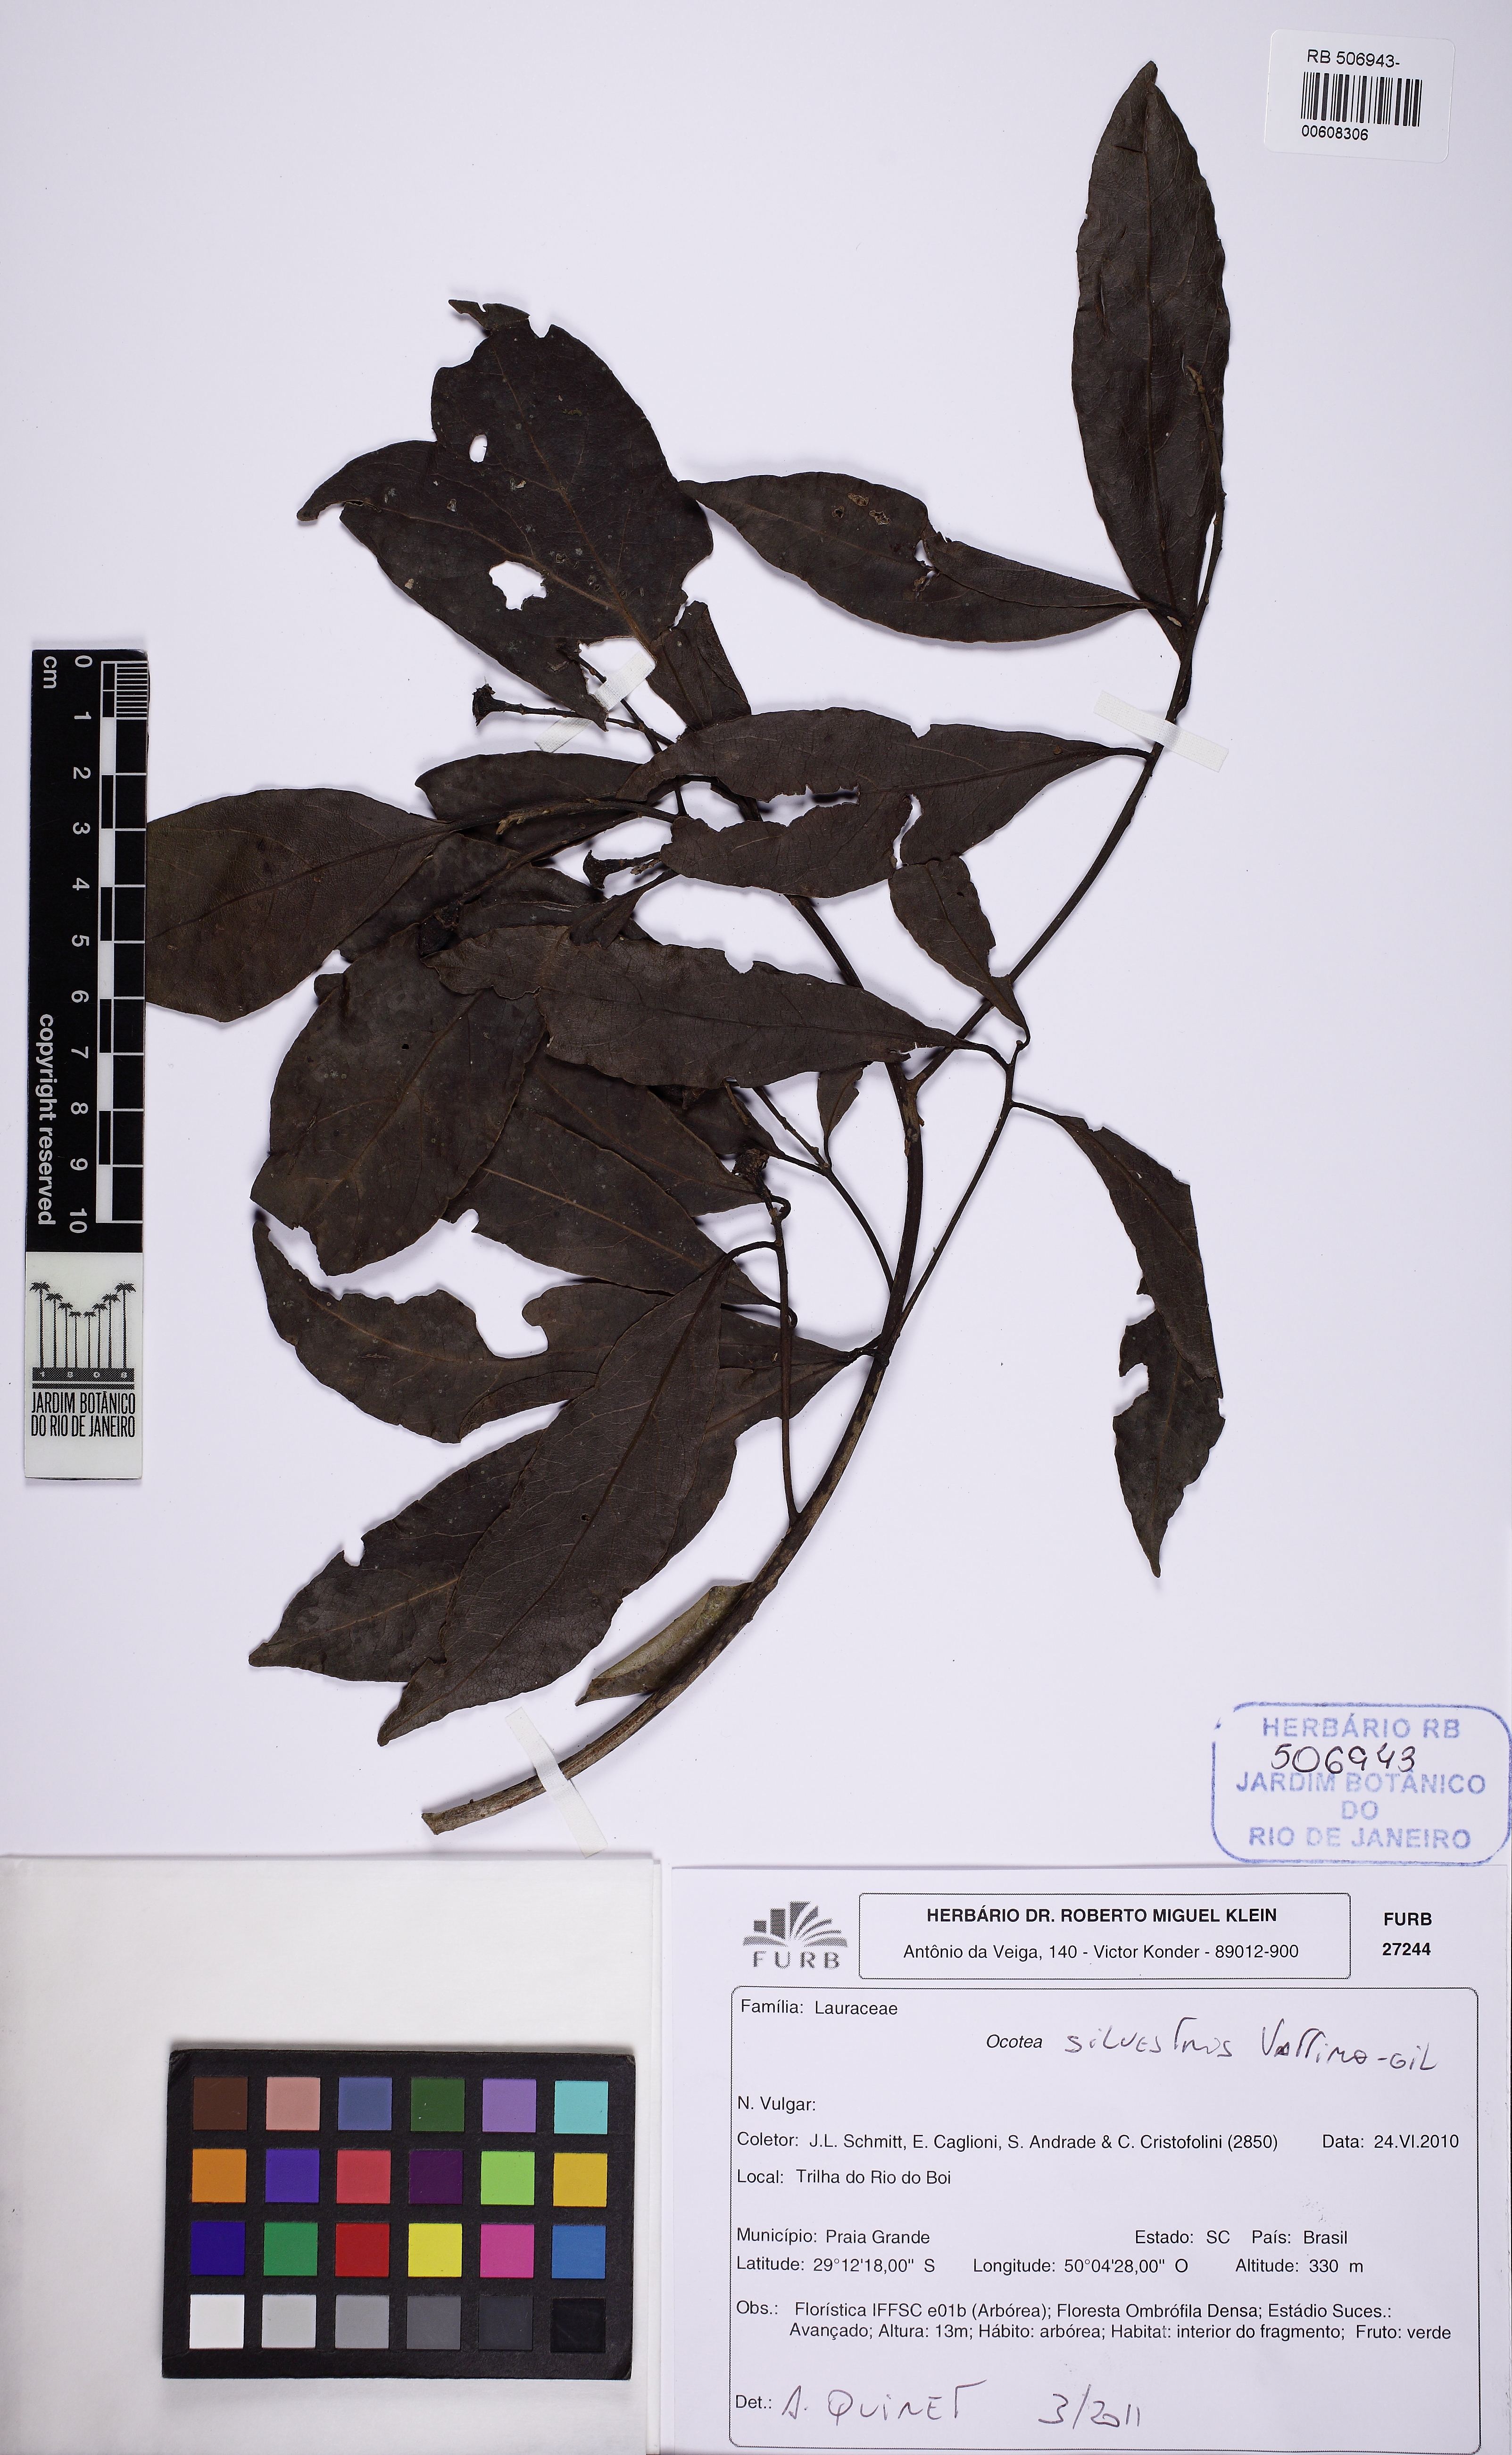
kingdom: Plantae
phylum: Tracheophyta
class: Magnoliopsida
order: Laurales
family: Lauraceae
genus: Ocotea
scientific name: Ocotea silvestris
